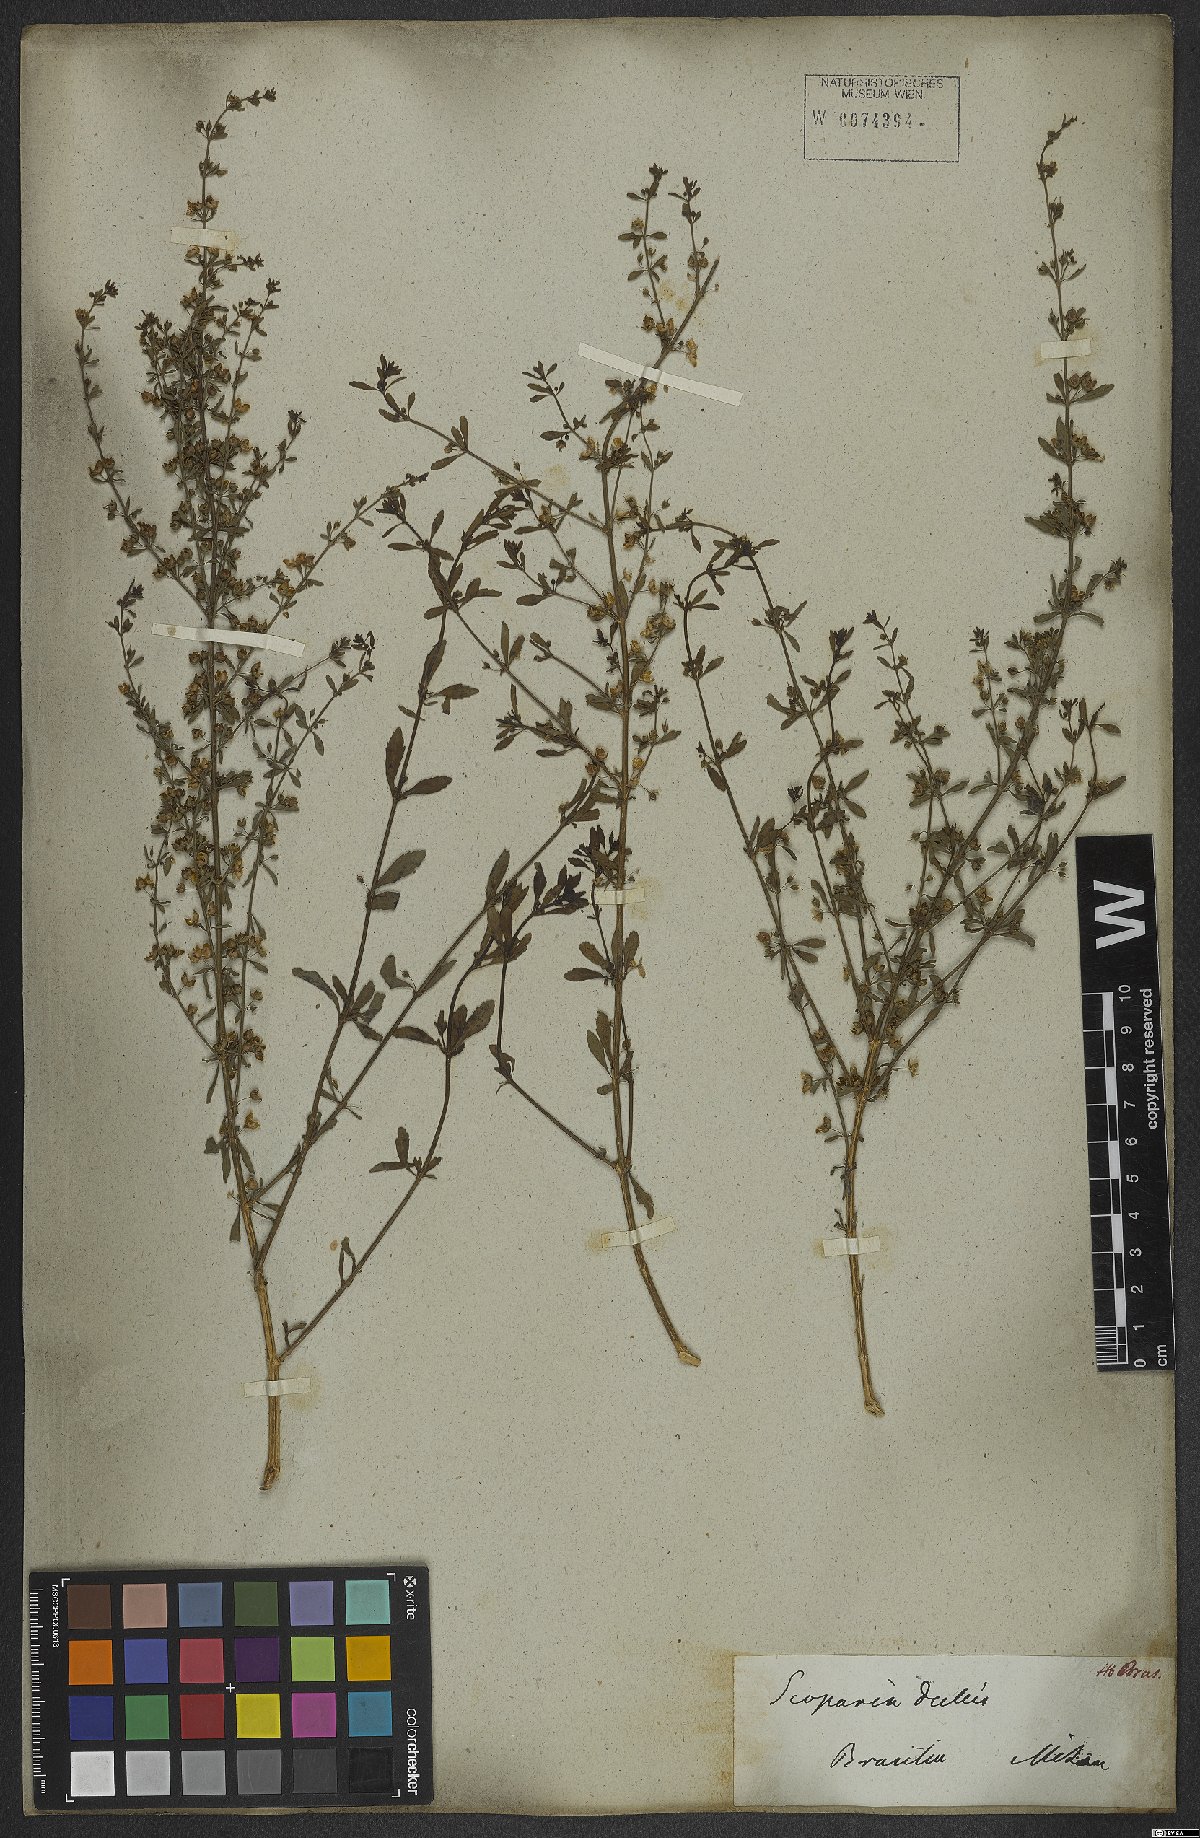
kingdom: Plantae
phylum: Tracheophyta
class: Magnoliopsida
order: Lamiales
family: Plantaginaceae
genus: Scoparia
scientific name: Scoparia dulcis
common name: Scoparia-weed
